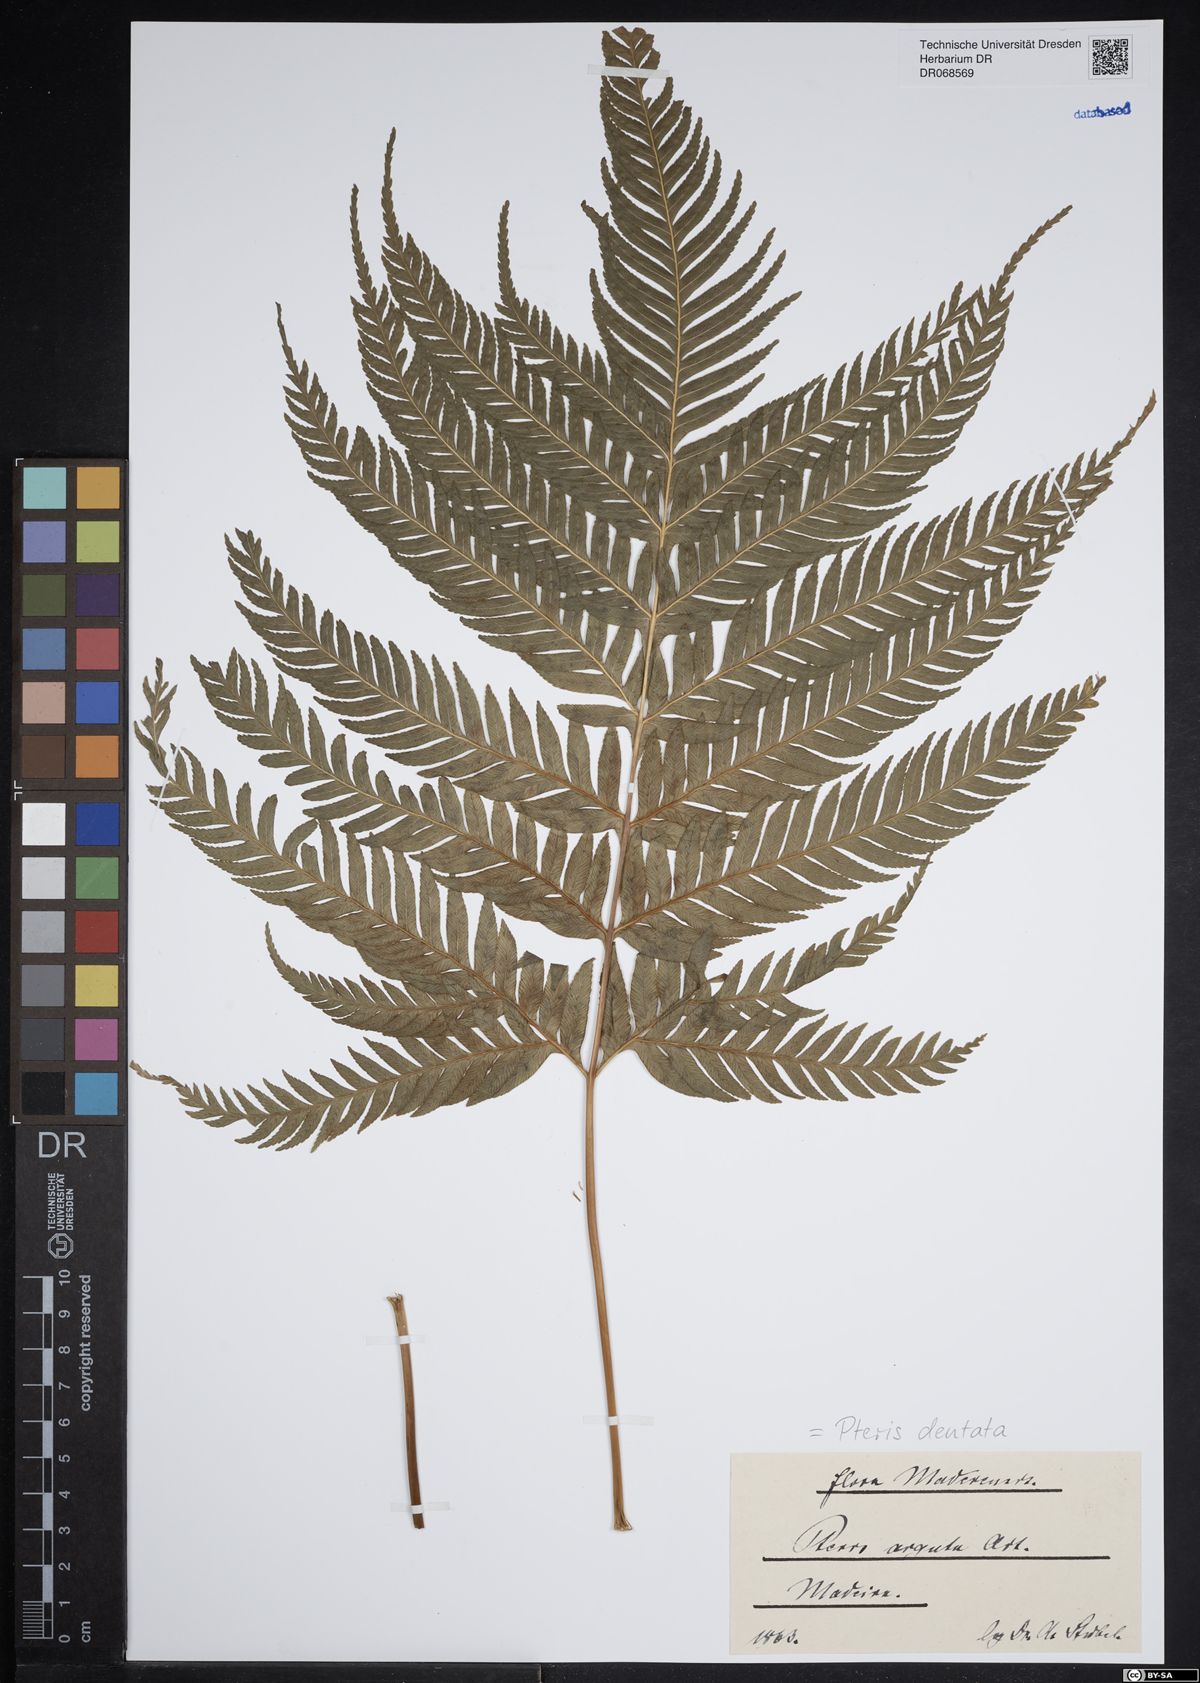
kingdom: Plantae
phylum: Tracheophyta
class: Polypodiopsida
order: Polypodiales
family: Pteridaceae
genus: Pteris
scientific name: Pteris dentata
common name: Toothed brake
